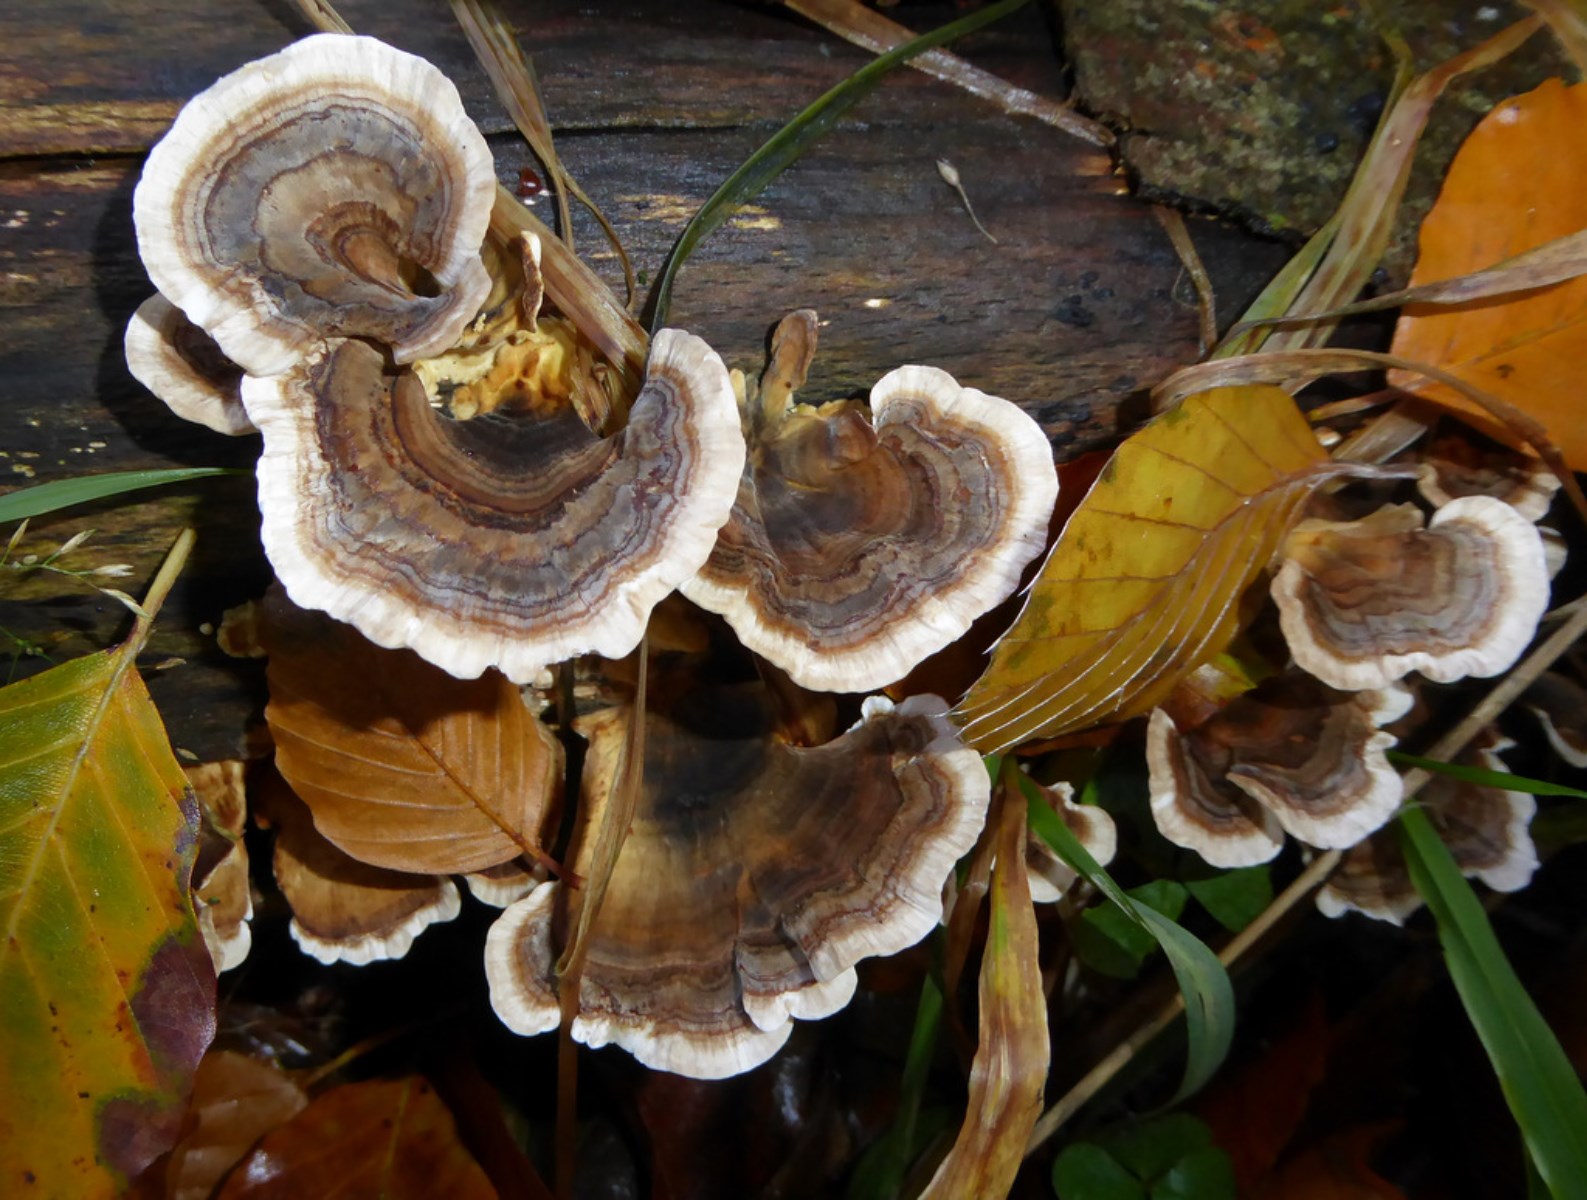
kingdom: Fungi
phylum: Basidiomycota
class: Agaricomycetes
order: Polyporales
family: Polyporaceae
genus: Trametes
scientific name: Trametes versicolor
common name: broget læderporesvamp
